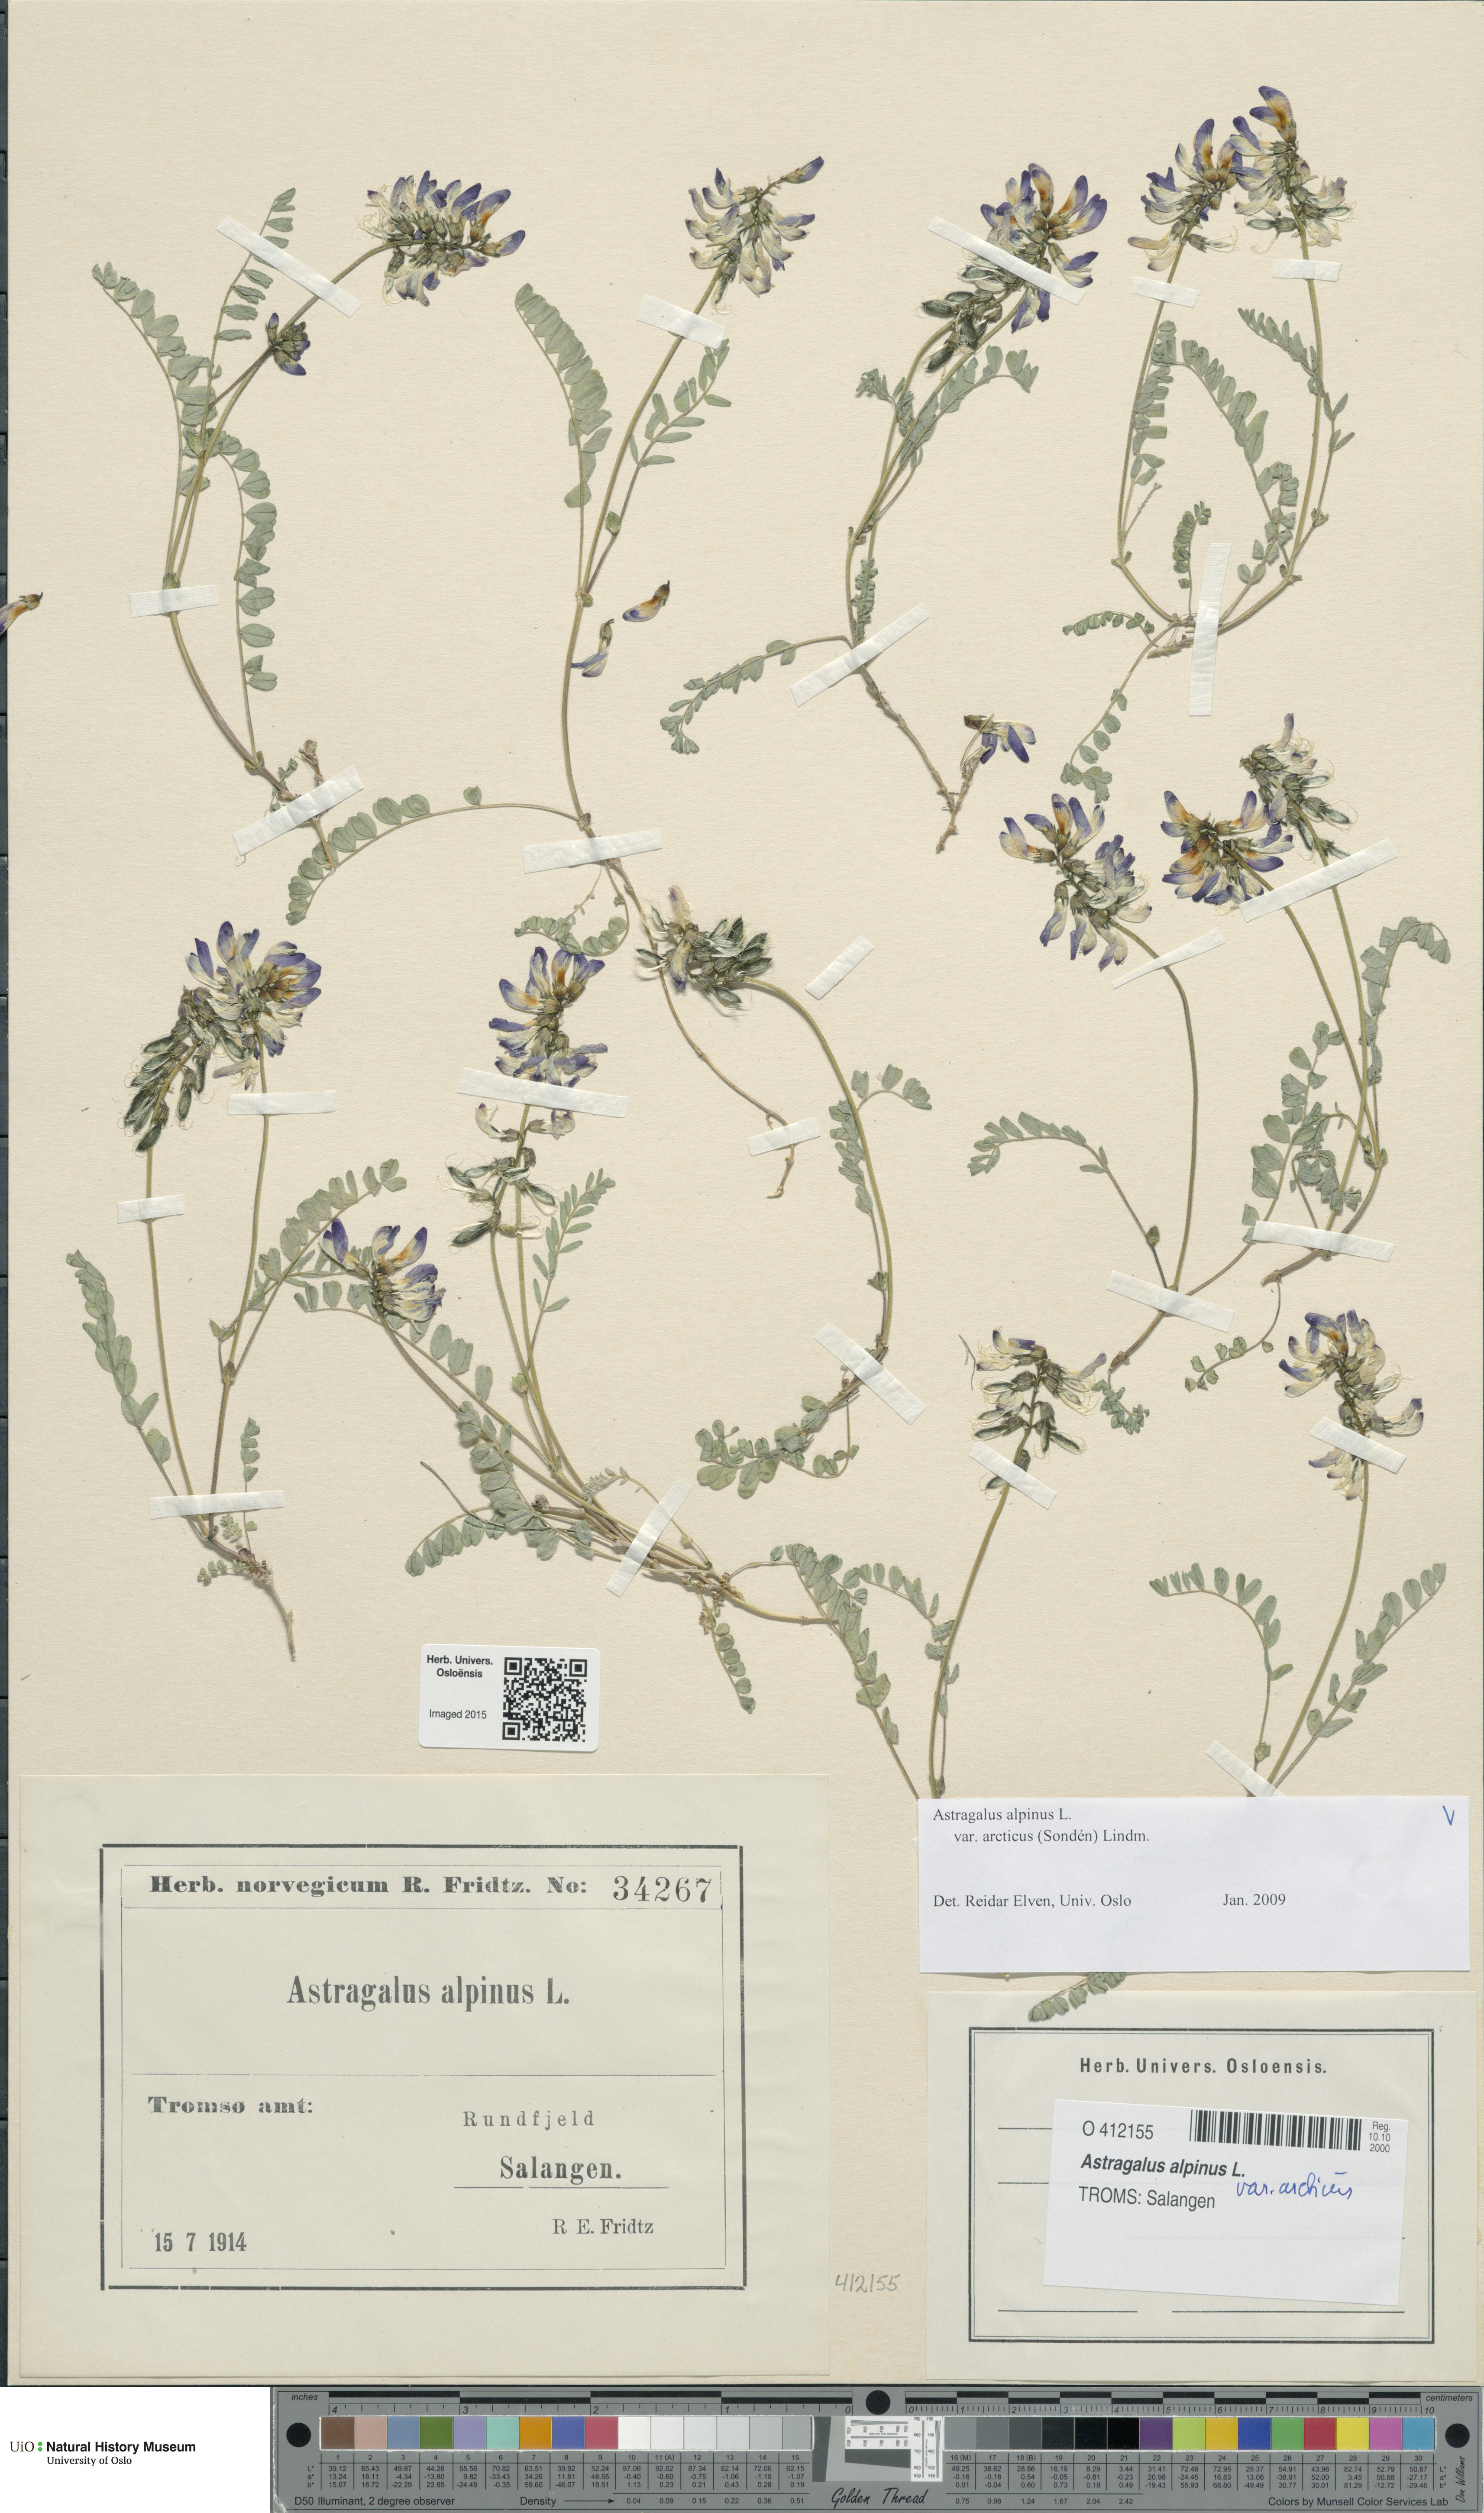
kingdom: Plantae
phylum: Tracheophyta
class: Magnoliopsida
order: Fabales
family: Fabaceae
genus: Astragalus
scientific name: Astragalus norvegicus
